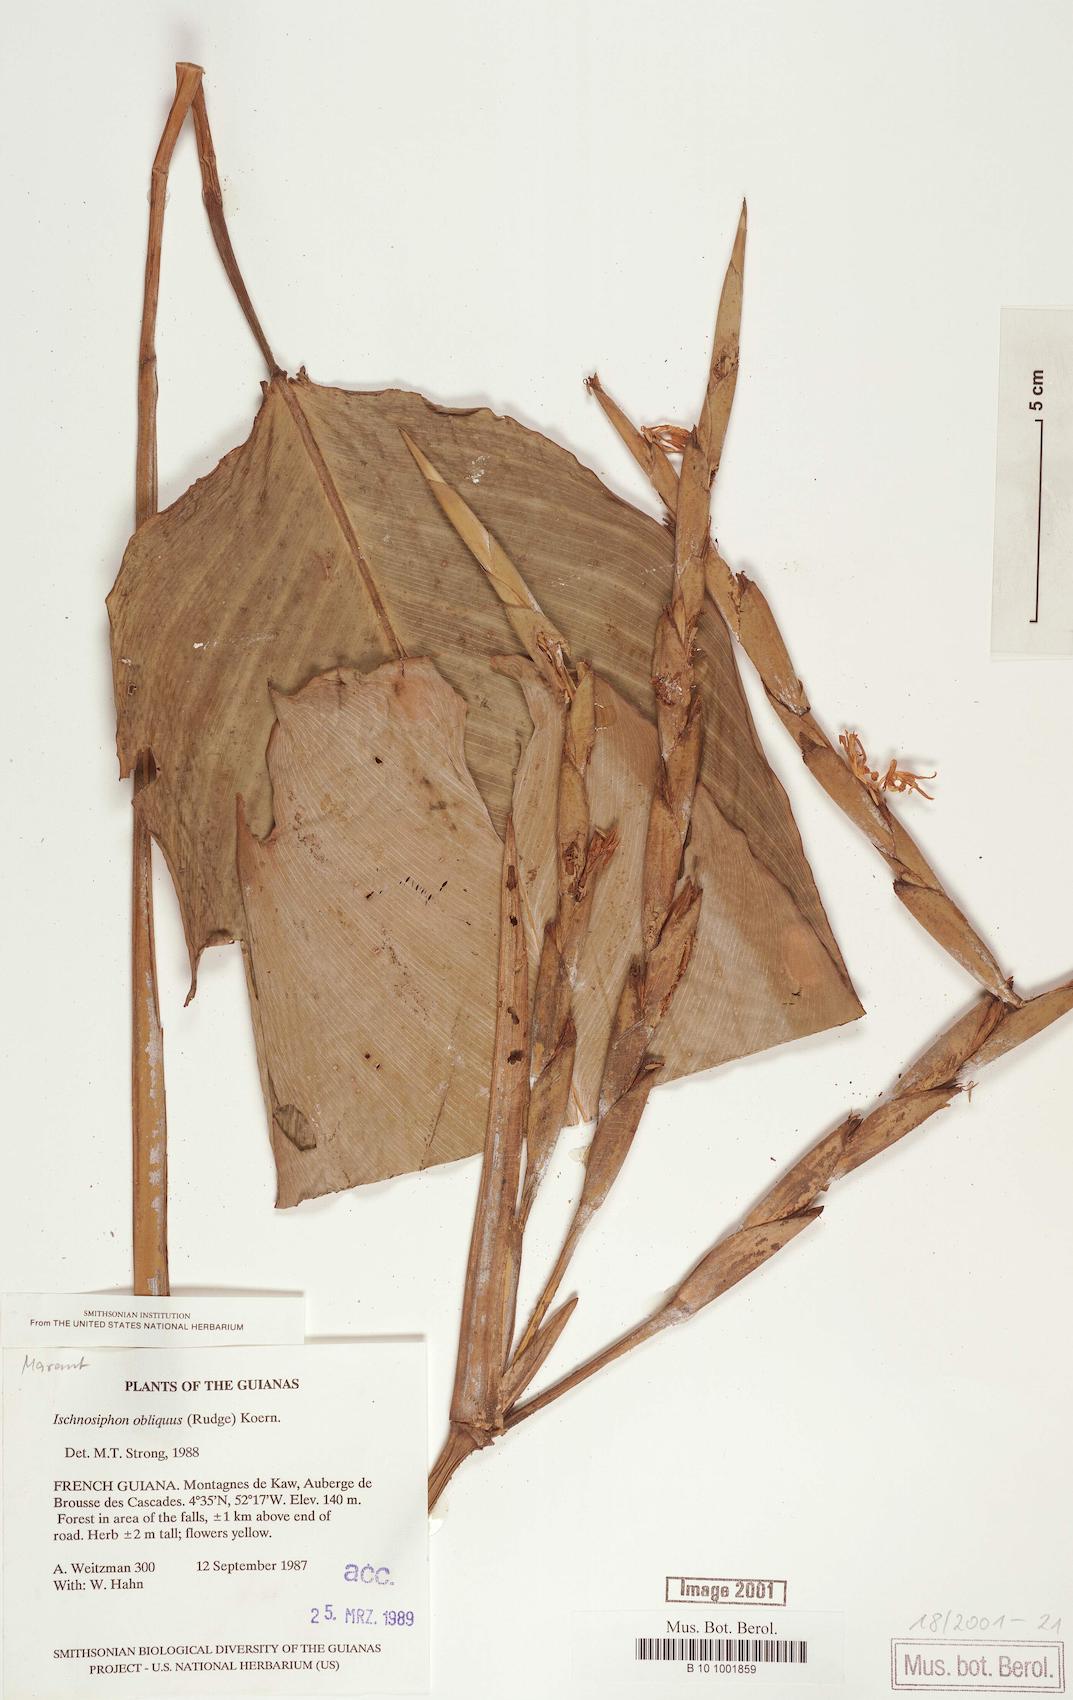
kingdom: Plantae
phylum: Tracheophyta
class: Liliopsida
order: Zingiberales
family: Marantaceae
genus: Ischnosiphon
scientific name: Ischnosiphon obliquus
